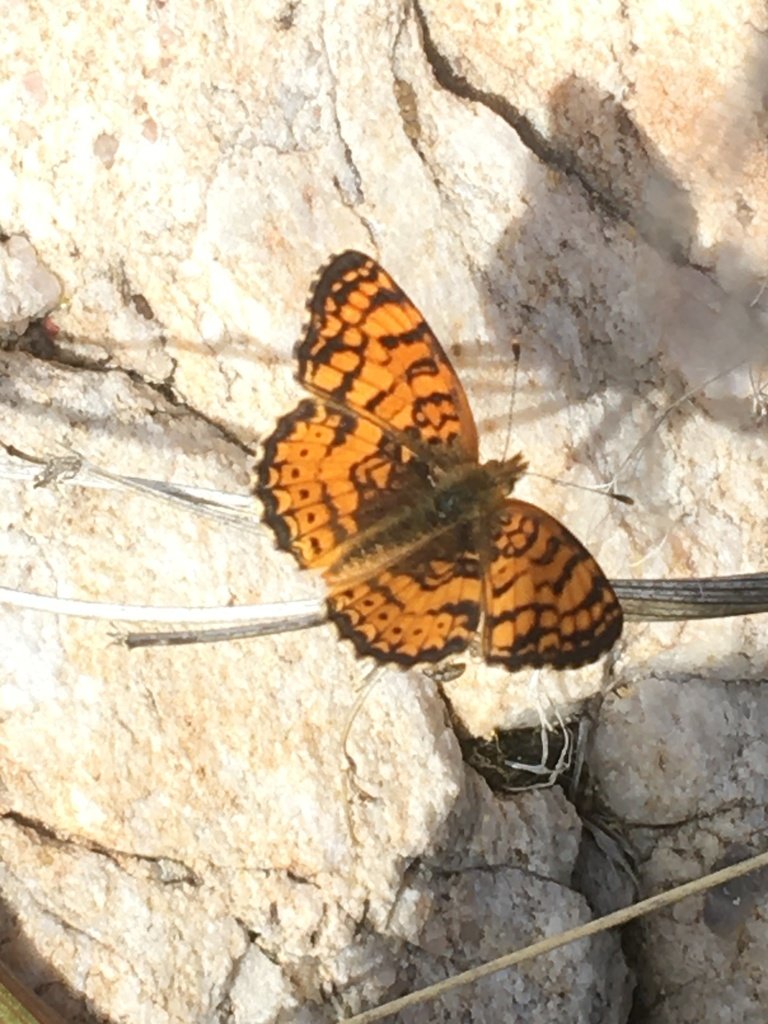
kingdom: Animalia
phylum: Arthropoda
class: Insecta
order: Lepidoptera
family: Nymphalidae
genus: Eresia
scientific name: Eresia aveyrona
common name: Mylitta Crescent
